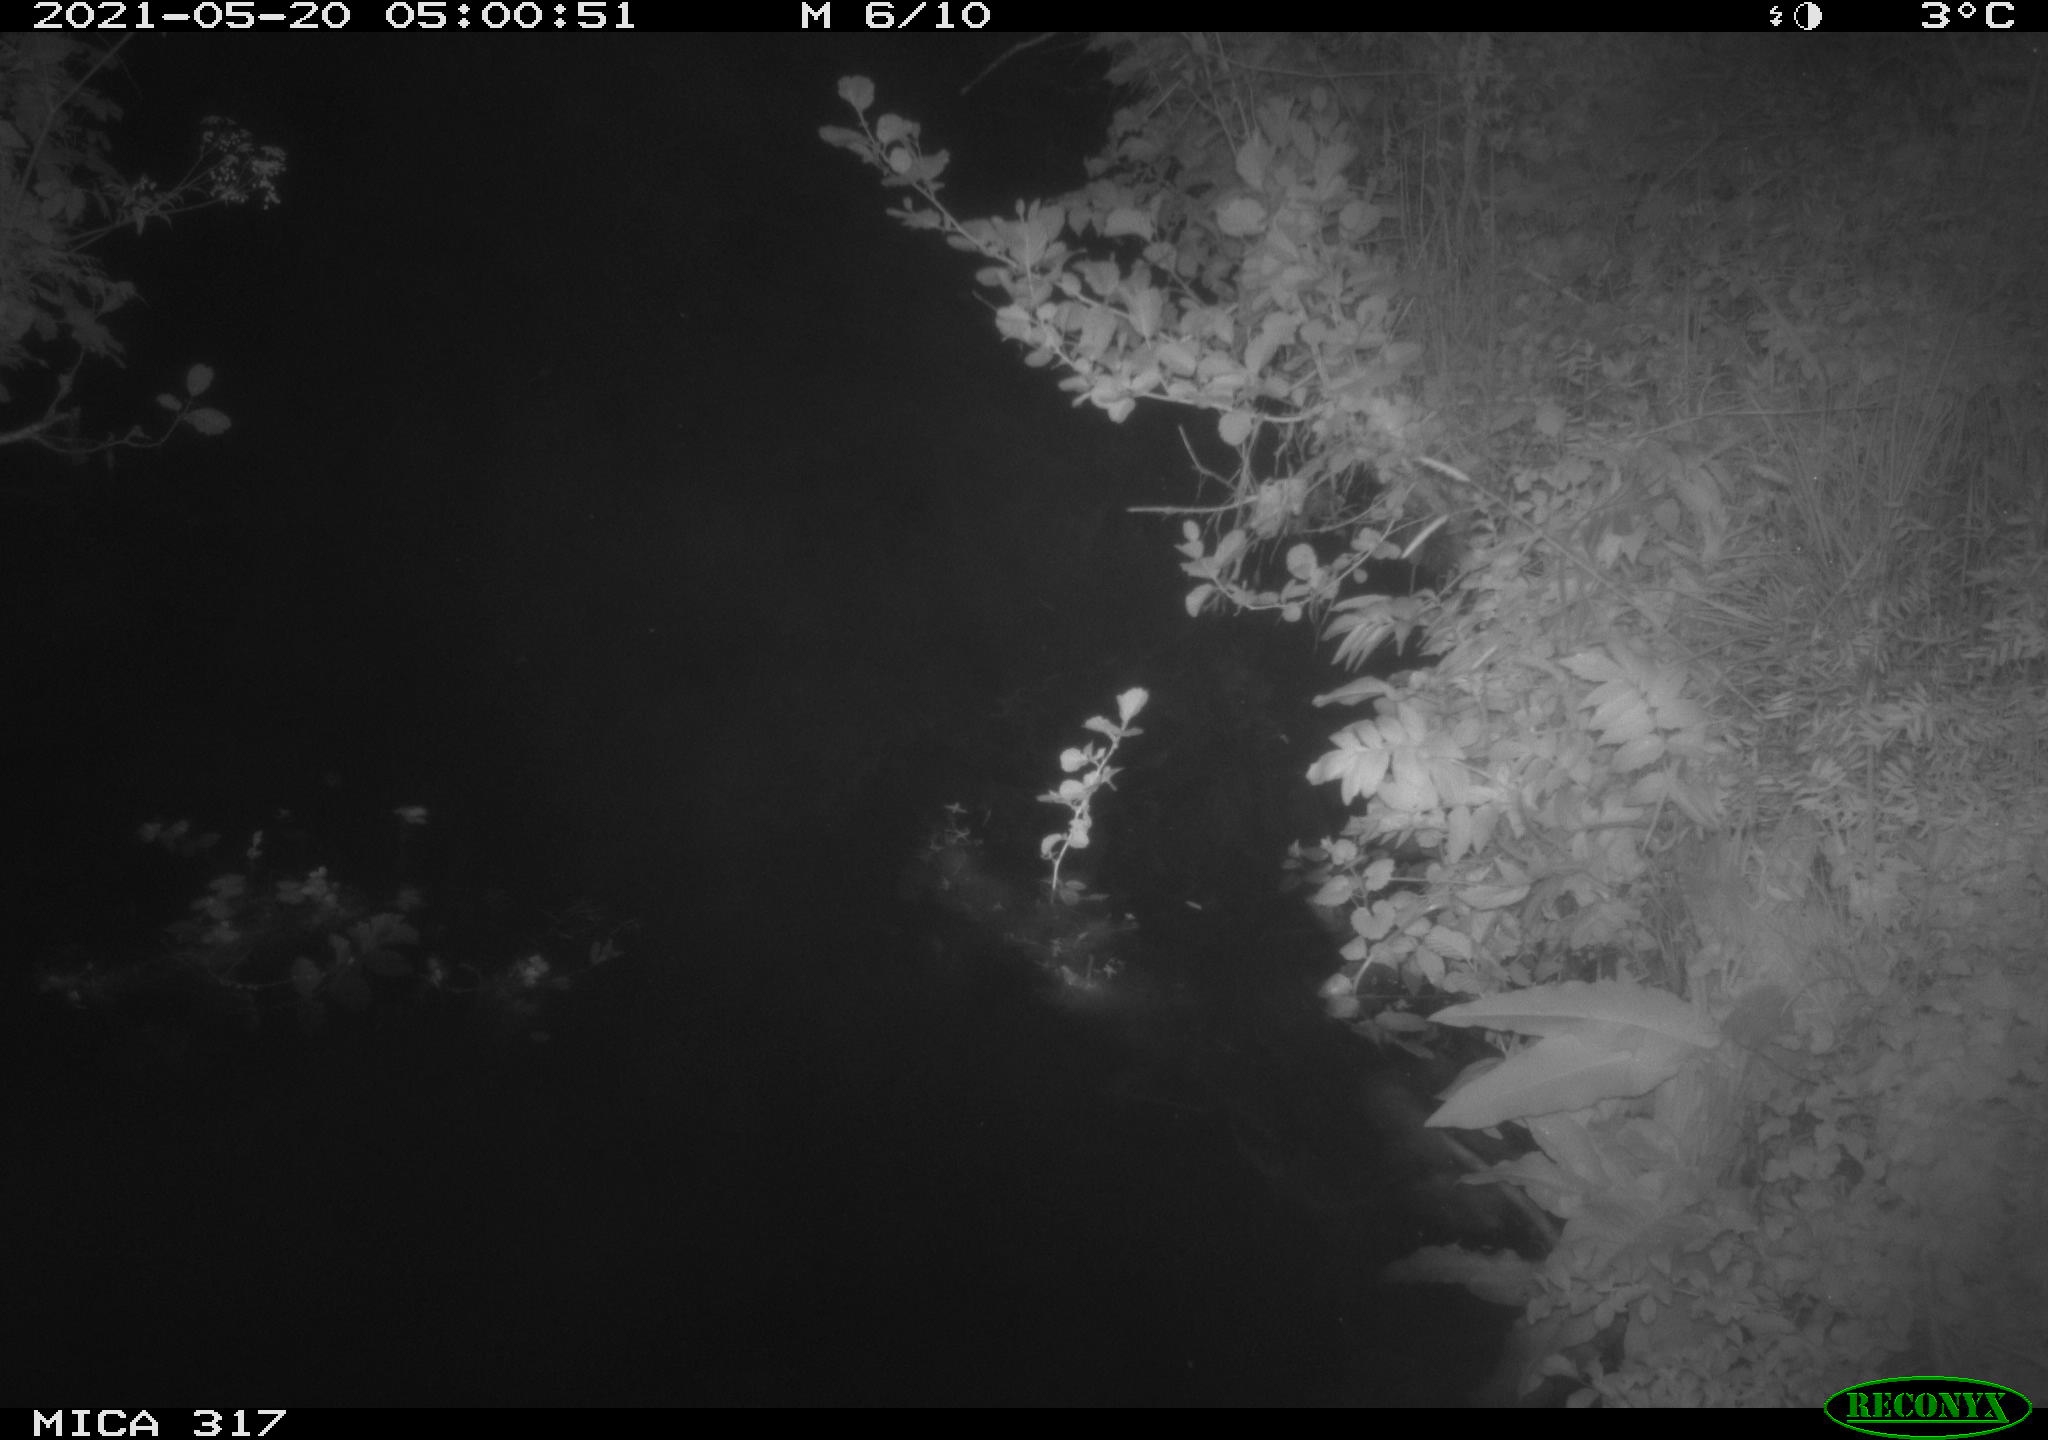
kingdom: Animalia
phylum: Chordata
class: Aves
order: Anseriformes
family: Anatidae
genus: Anas
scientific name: Anas
